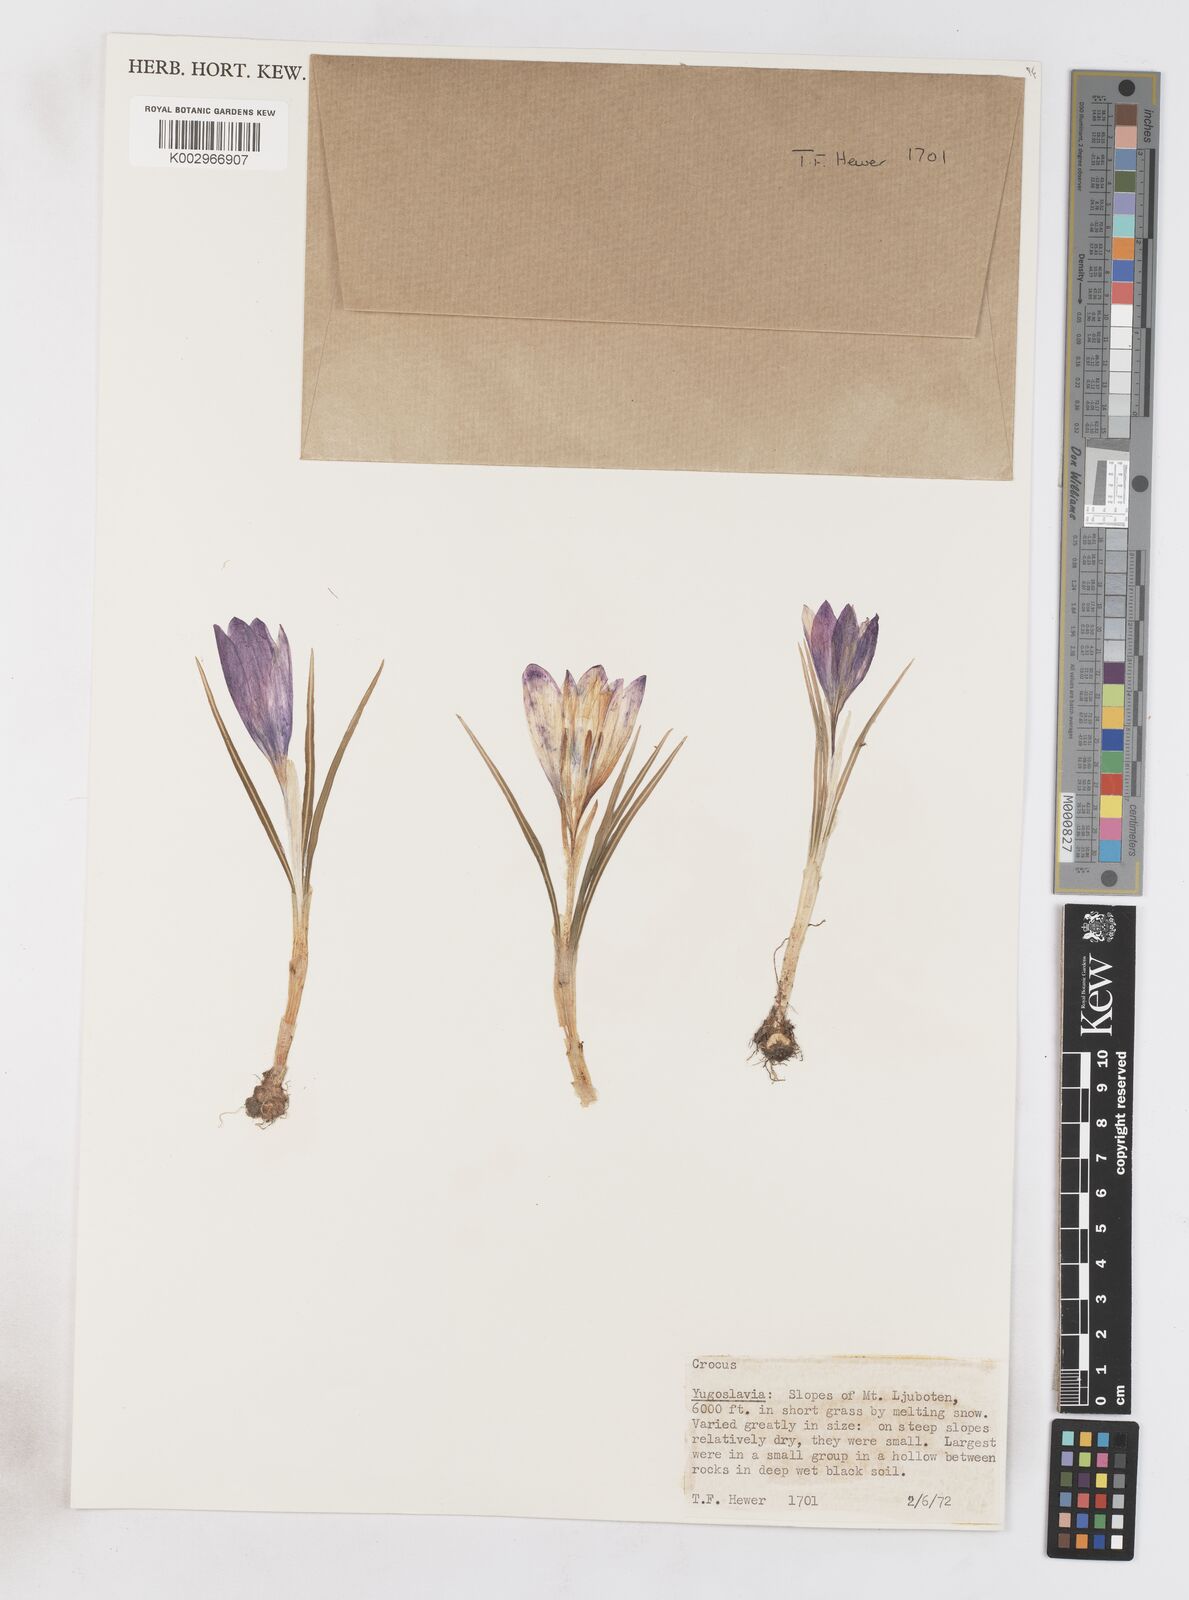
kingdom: Plantae
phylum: Tracheophyta
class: Liliopsida
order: Asparagales
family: Iridaceae
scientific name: Iridaceae
